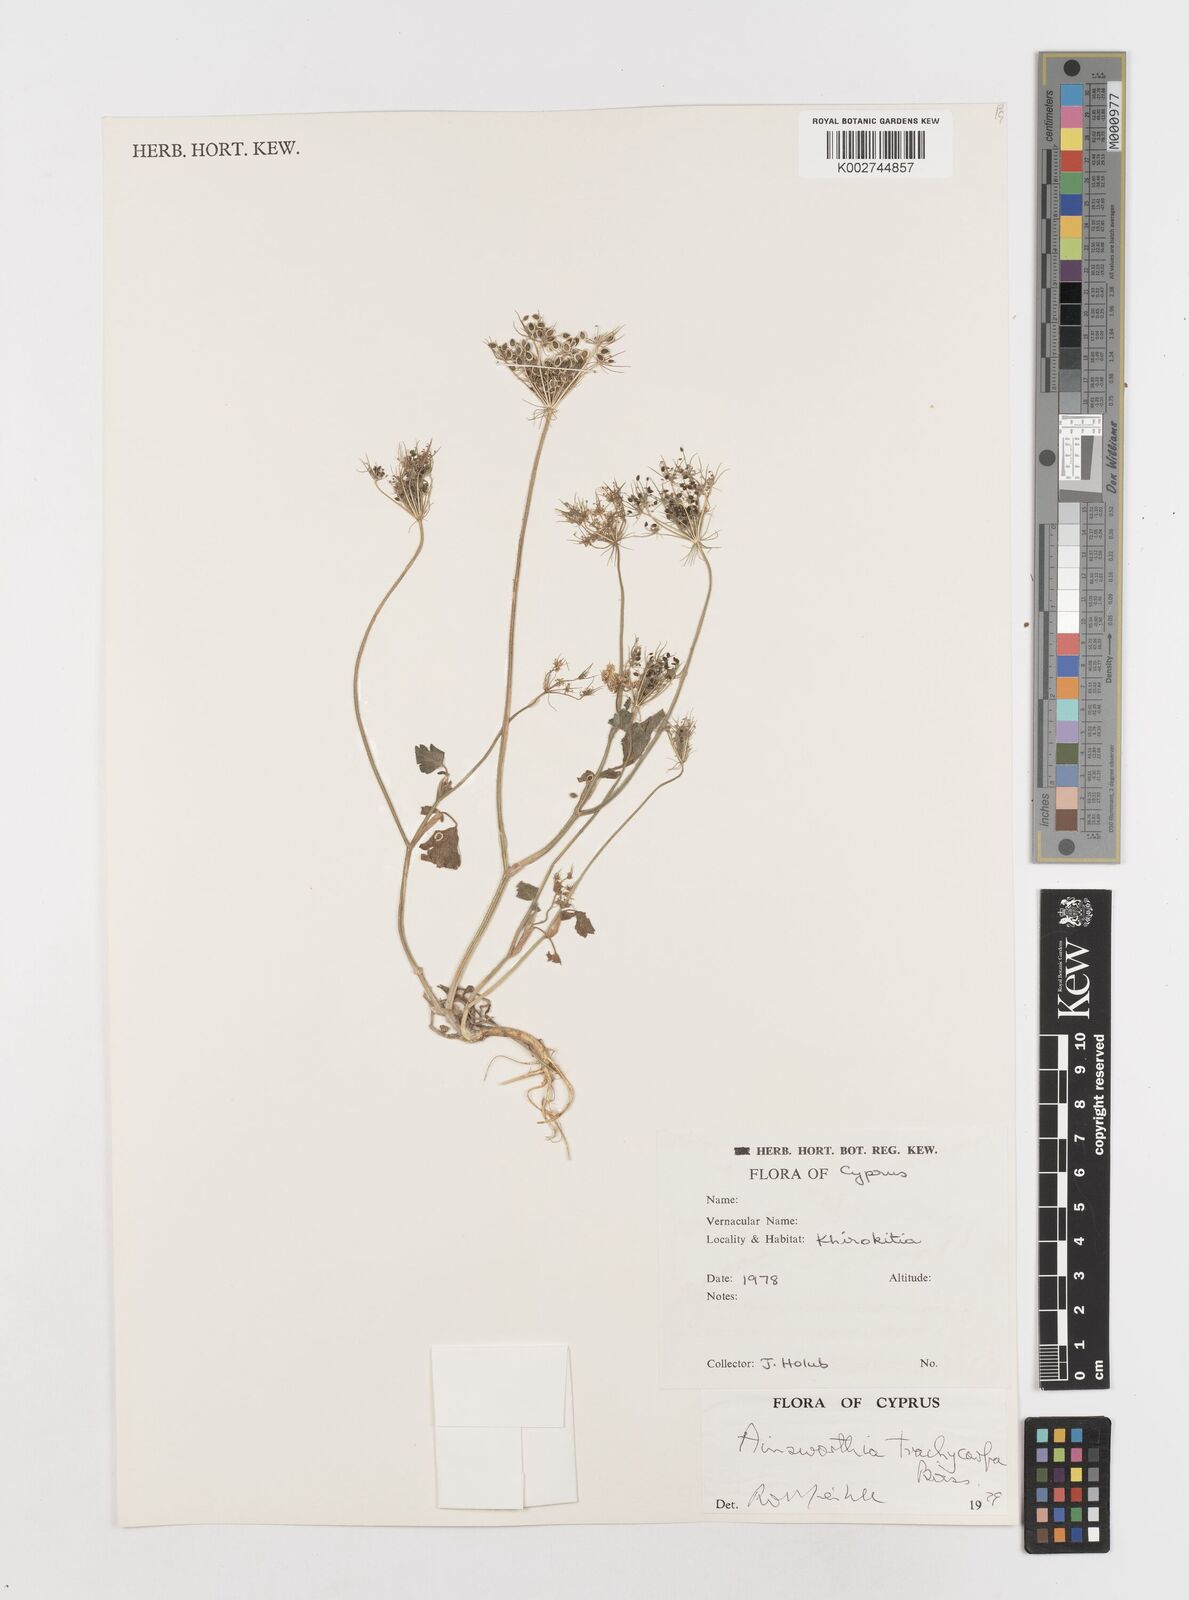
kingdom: Plantae
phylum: Tracheophyta
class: Magnoliopsida
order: Apiales
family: Apiaceae
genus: Ainsworthia
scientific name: Ainsworthia cordata
